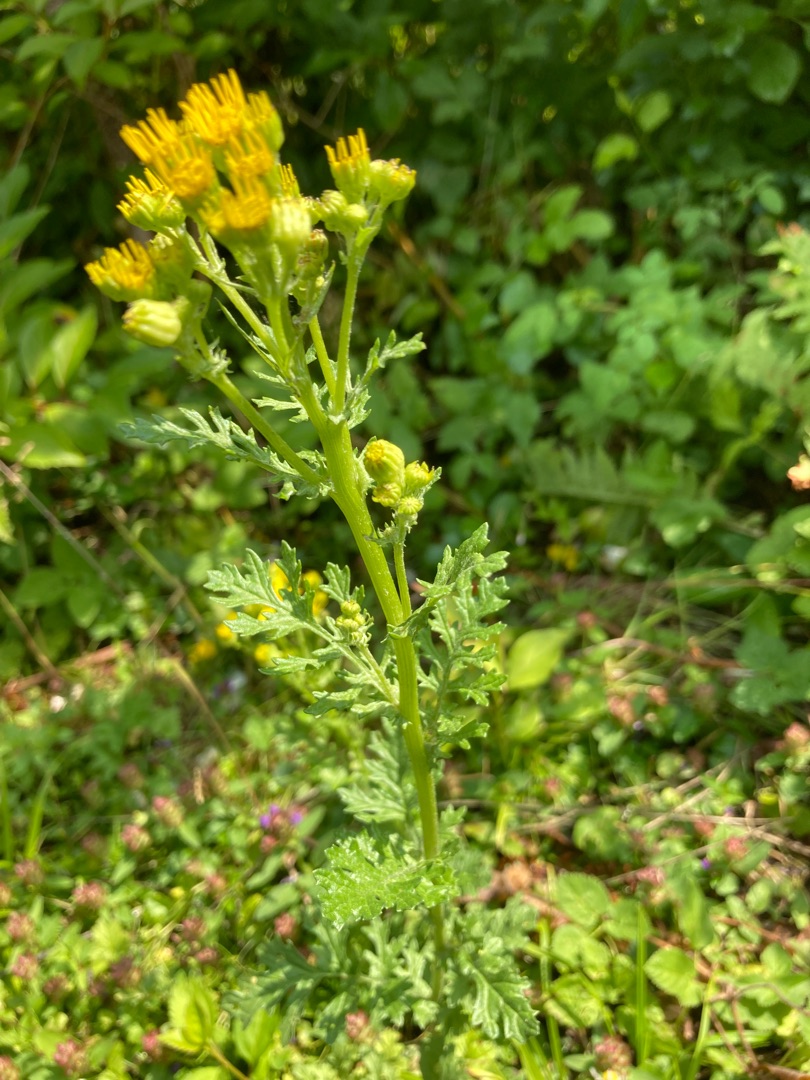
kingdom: Plantae
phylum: Tracheophyta
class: Magnoliopsida
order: Asterales
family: Asteraceae
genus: Jacobaea
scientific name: Jacobaea vulgaris
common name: Eng-brandbæger
